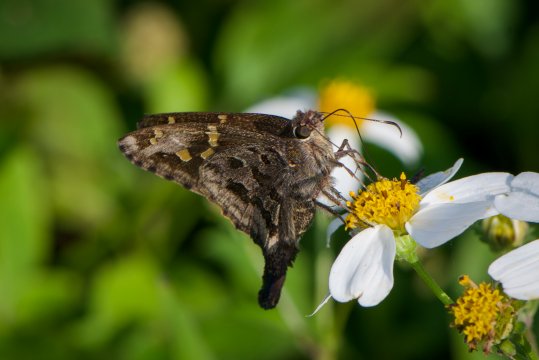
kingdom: Animalia
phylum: Arthropoda
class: Insecta
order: Lepidoptera
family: Hesperiidae
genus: Urbanus
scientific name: Urbanus dorantes
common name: Dorantes Longtail
